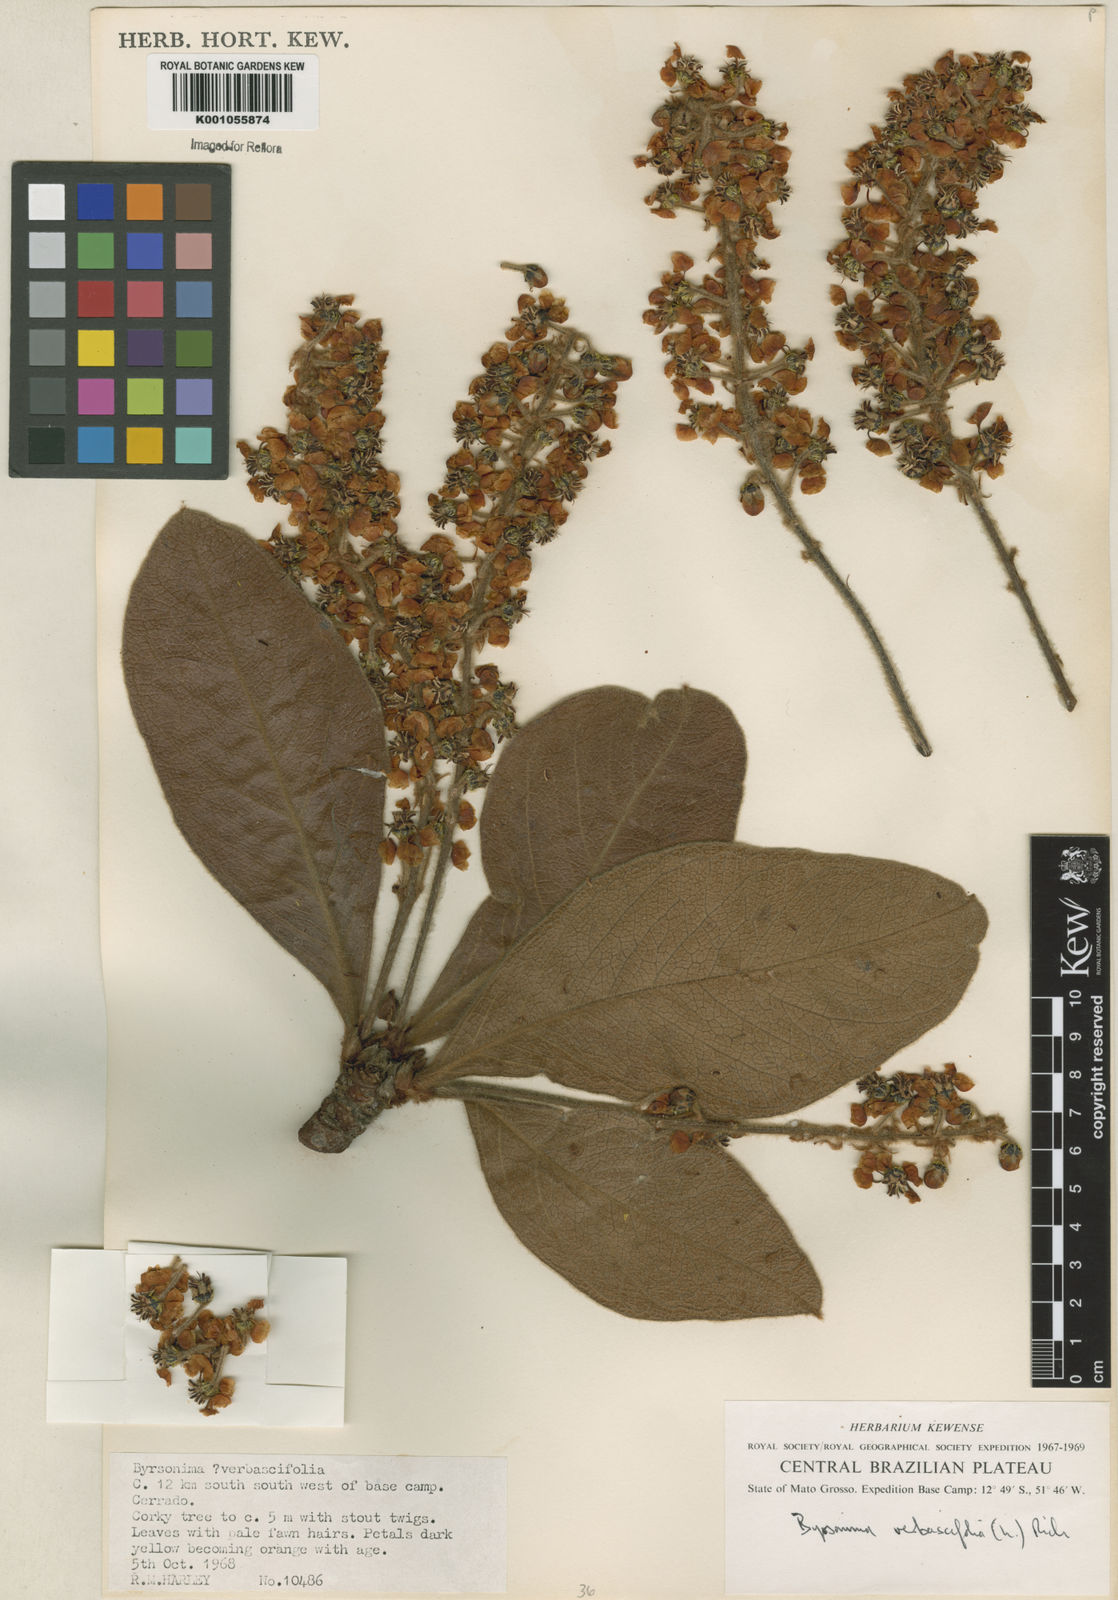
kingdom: Plantae
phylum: Tracheophyta
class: Magnoliopsida
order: Malpighiales
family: Malpighiaceae
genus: Byrsonima
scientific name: Byrsonima verbascifolia
